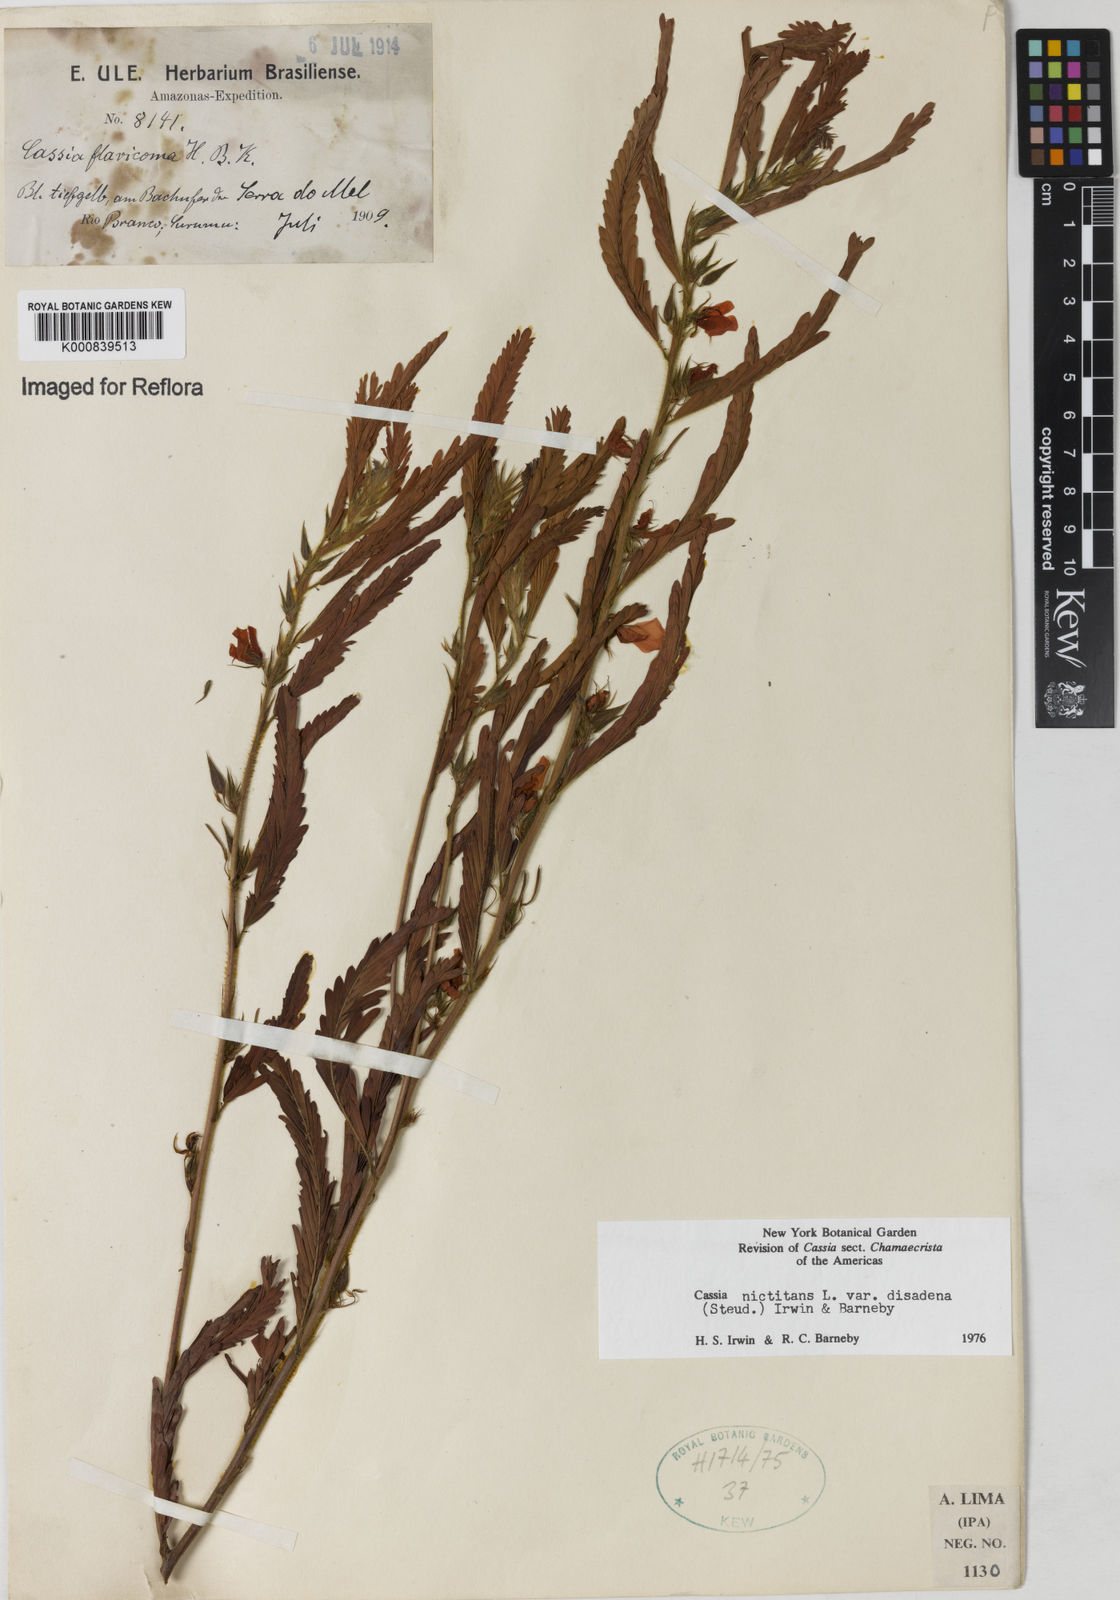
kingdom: Plantae
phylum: Tracheophyta
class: Magnoliopsida
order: Fabales
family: Fabaceae
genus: Chamaecrista
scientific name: Chamaecrista nictitans
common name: Sensitive cassia
